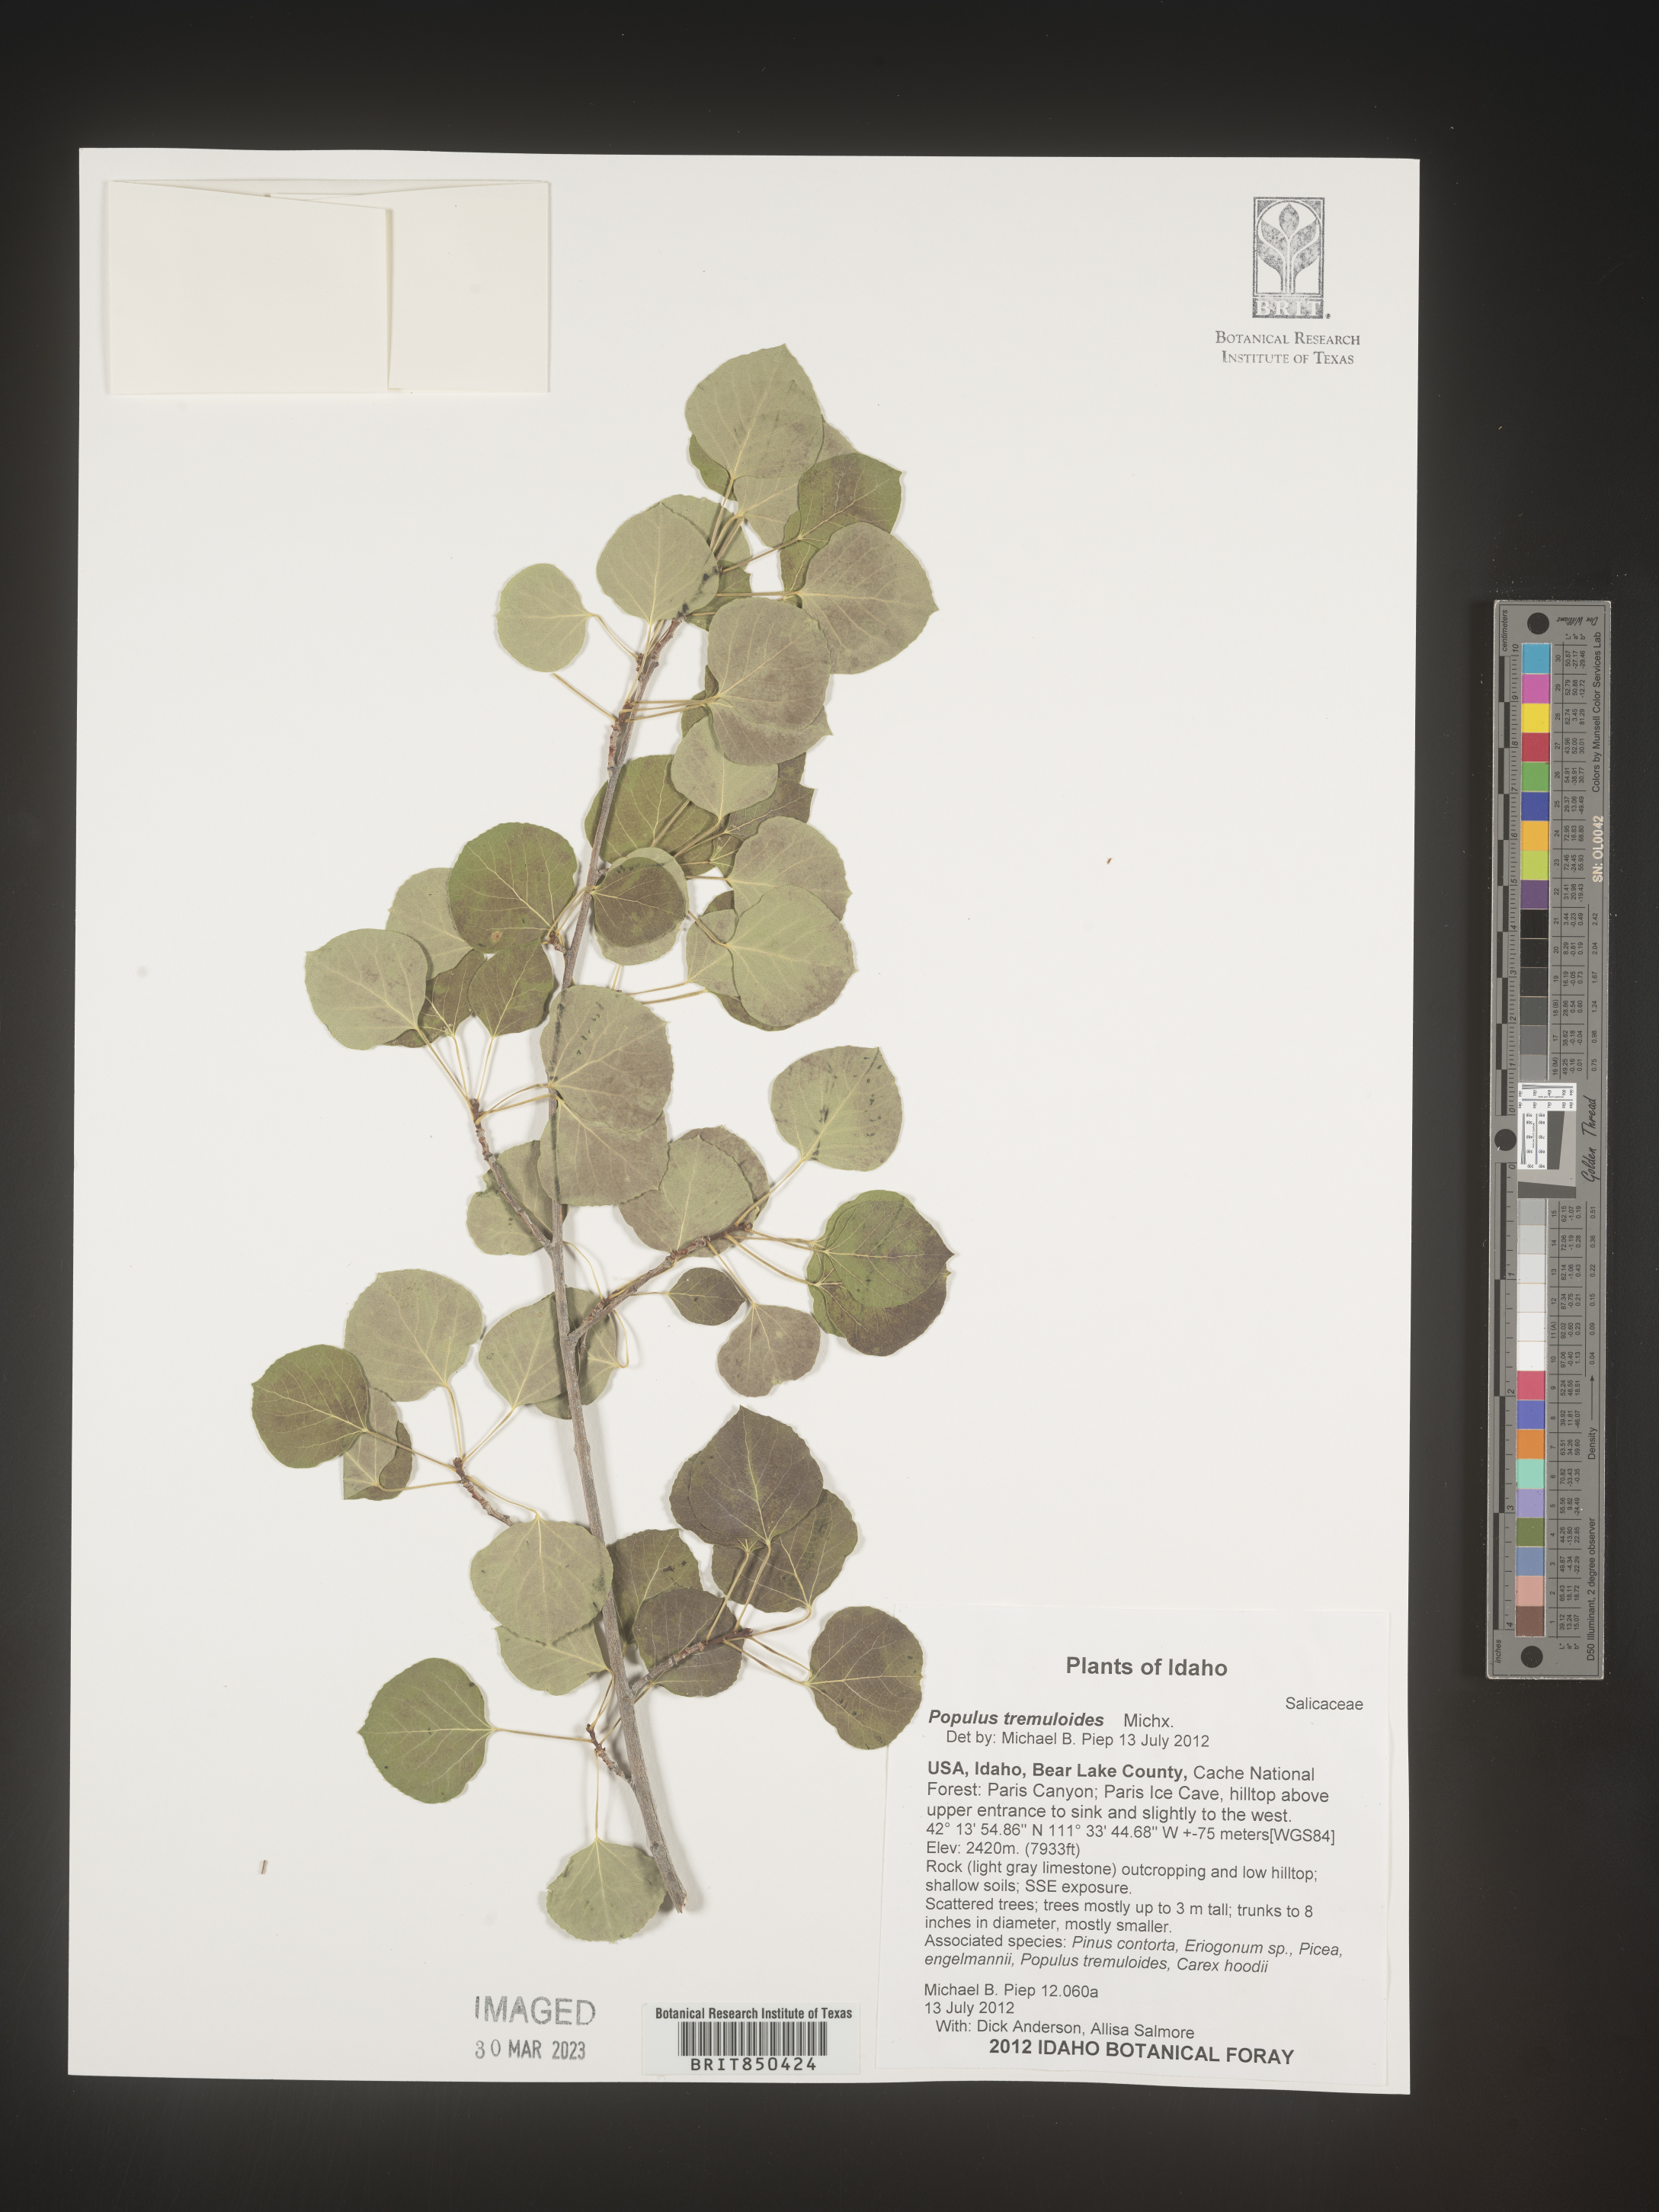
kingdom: Plantae
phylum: Tracheophyta
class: Magnoliopsida
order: Malpighiales
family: Salicaceae
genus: Populus
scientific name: Populus tremuloides
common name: Quaking aspen
